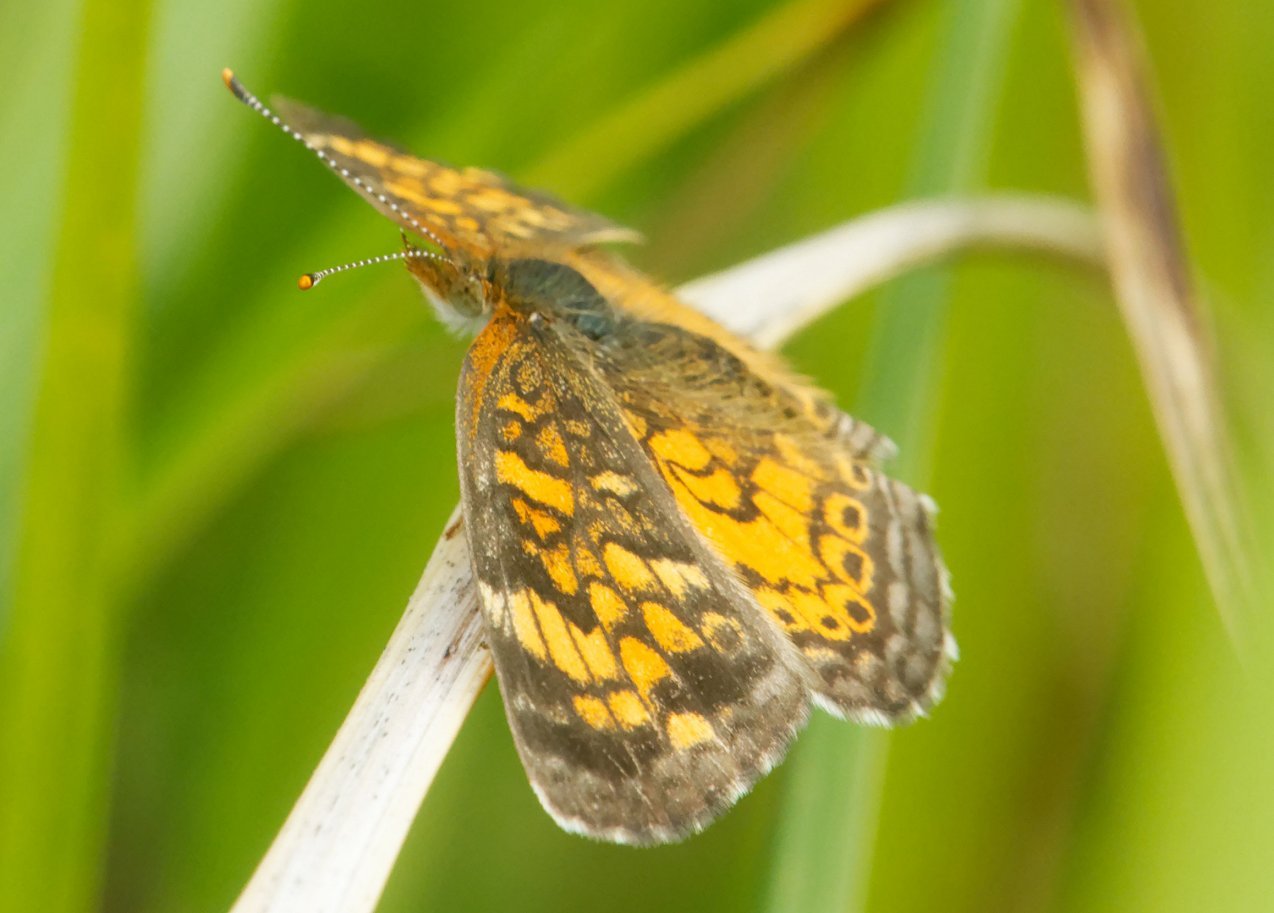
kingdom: Animalia
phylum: Arthropoda
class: Insecta
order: Lepidoptera
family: Nymphalidae
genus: Phyciodes
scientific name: Phyciodes
